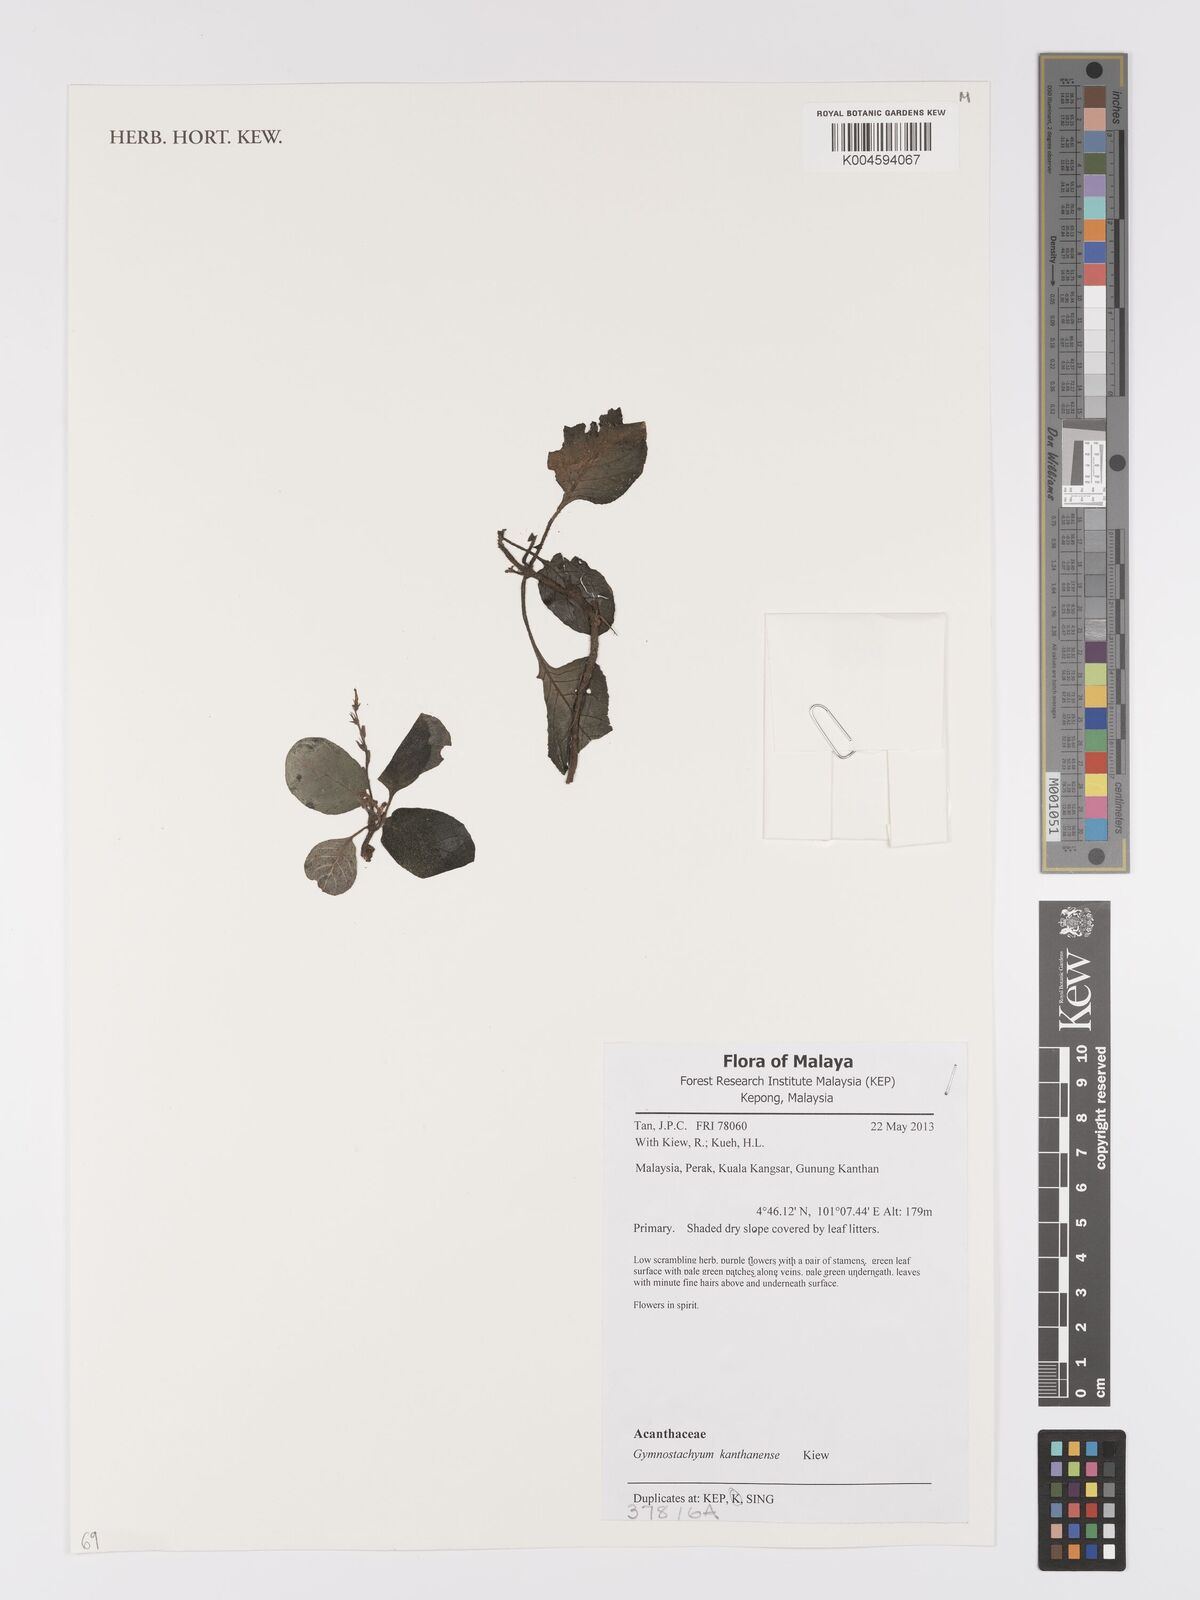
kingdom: Plantae
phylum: Tracheophyta
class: Magnoliopsida
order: Lamiales
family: Acanthaceae
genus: Gymnostachyum
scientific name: Gymnostachyum kanthanense
